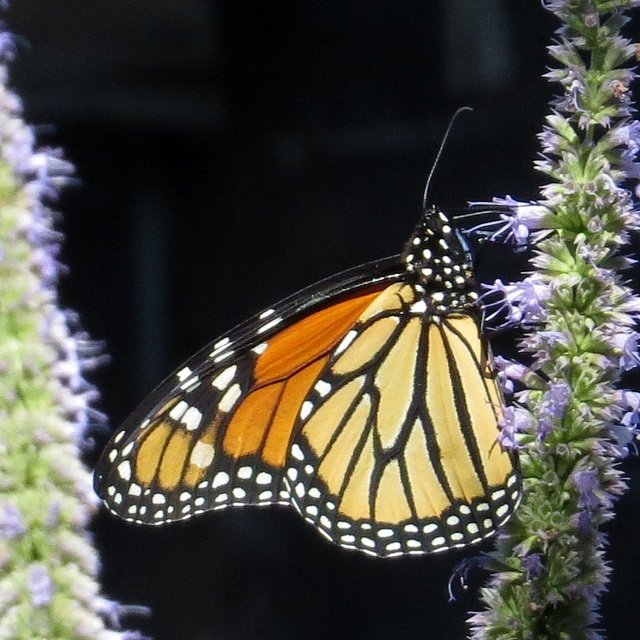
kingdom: Animalia
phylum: Arthropoda
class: Insecta
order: Lepidoptera
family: Nymphalidae
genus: Danaus
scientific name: Danaus plexippus
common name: Monarch
